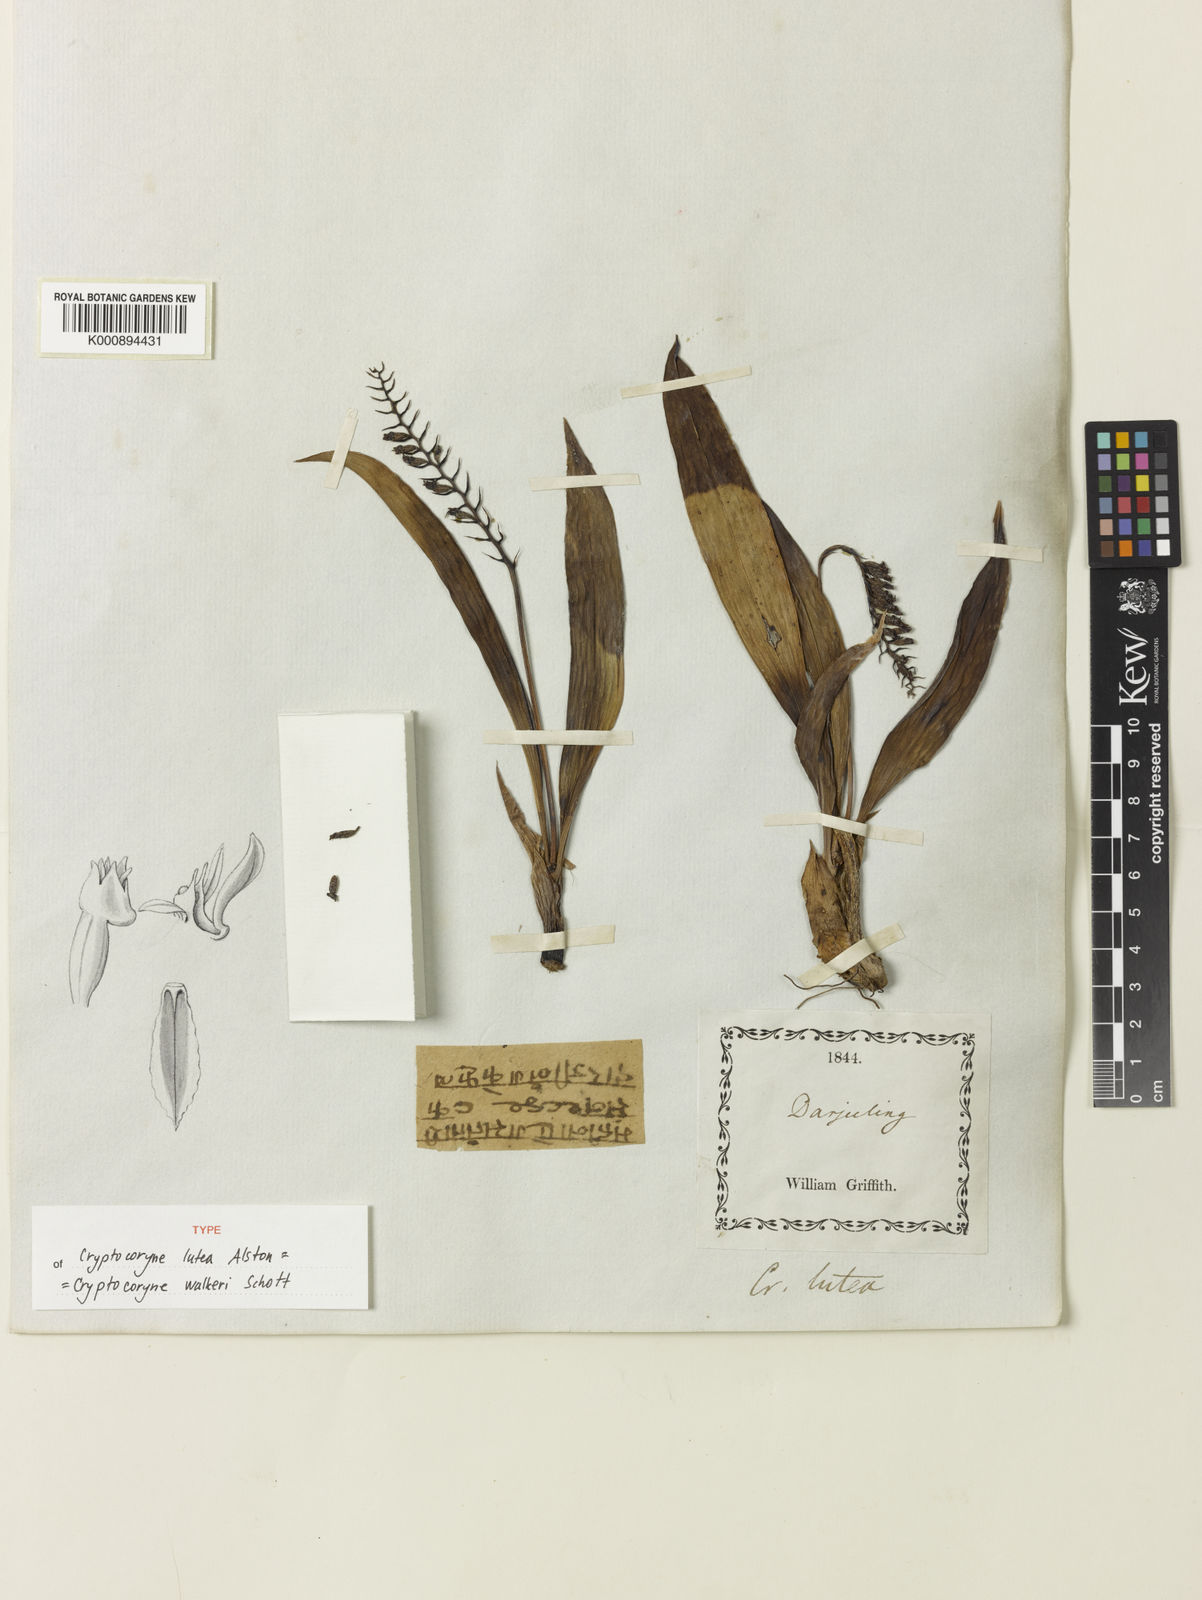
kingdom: Plantae
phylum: Tracheophyta
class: Liliopsida
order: Asparagales
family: Orchidaceae
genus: Cryptochilus
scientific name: Cryptochilus luteus
